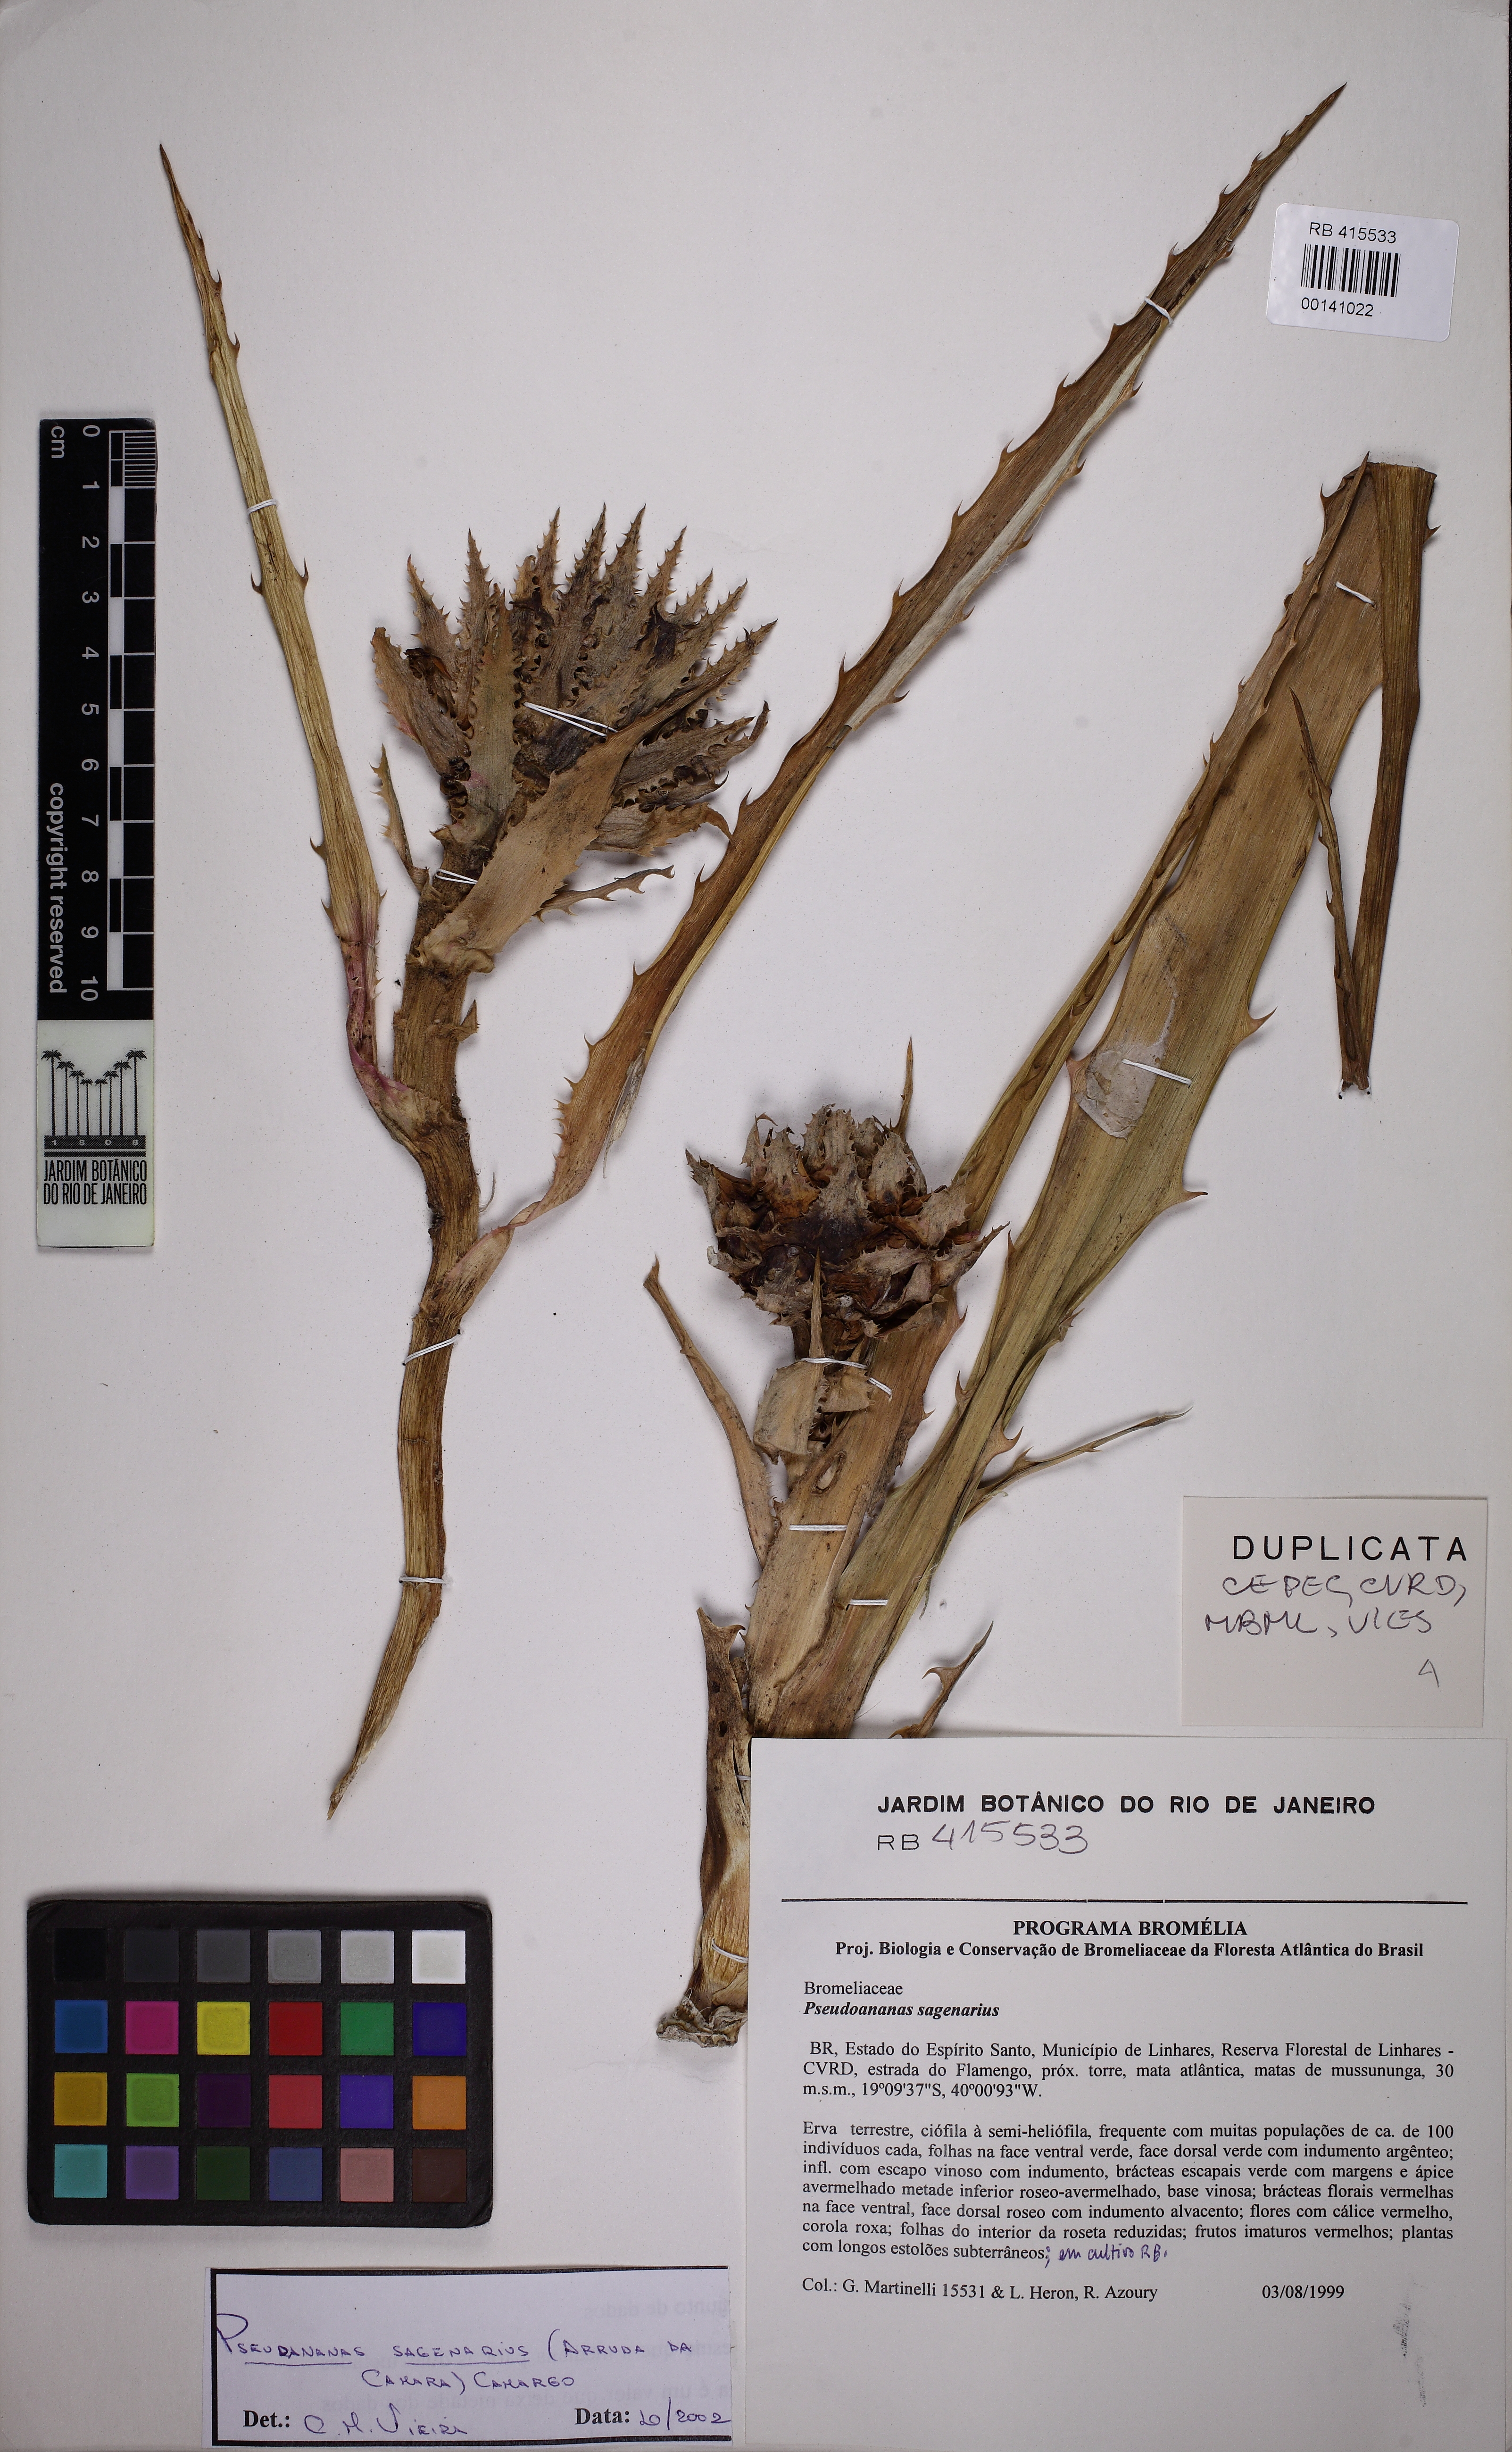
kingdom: Plantae
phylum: Tracheophyta
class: Liliopsida
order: Poales
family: Bromeliaceae
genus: Ananas
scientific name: Ananas comosus
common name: Pineapple
